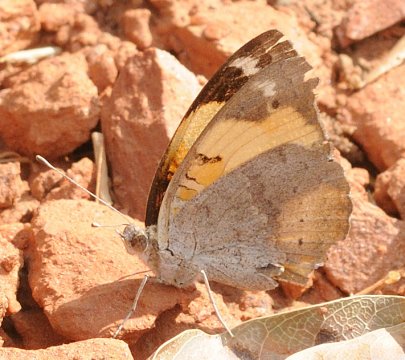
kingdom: Animalia
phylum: Arthropoda
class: Insecta
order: Lepidoptera
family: Nymphalidae
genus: Junonia
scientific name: Junonia hierta
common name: Yellow Pansy
